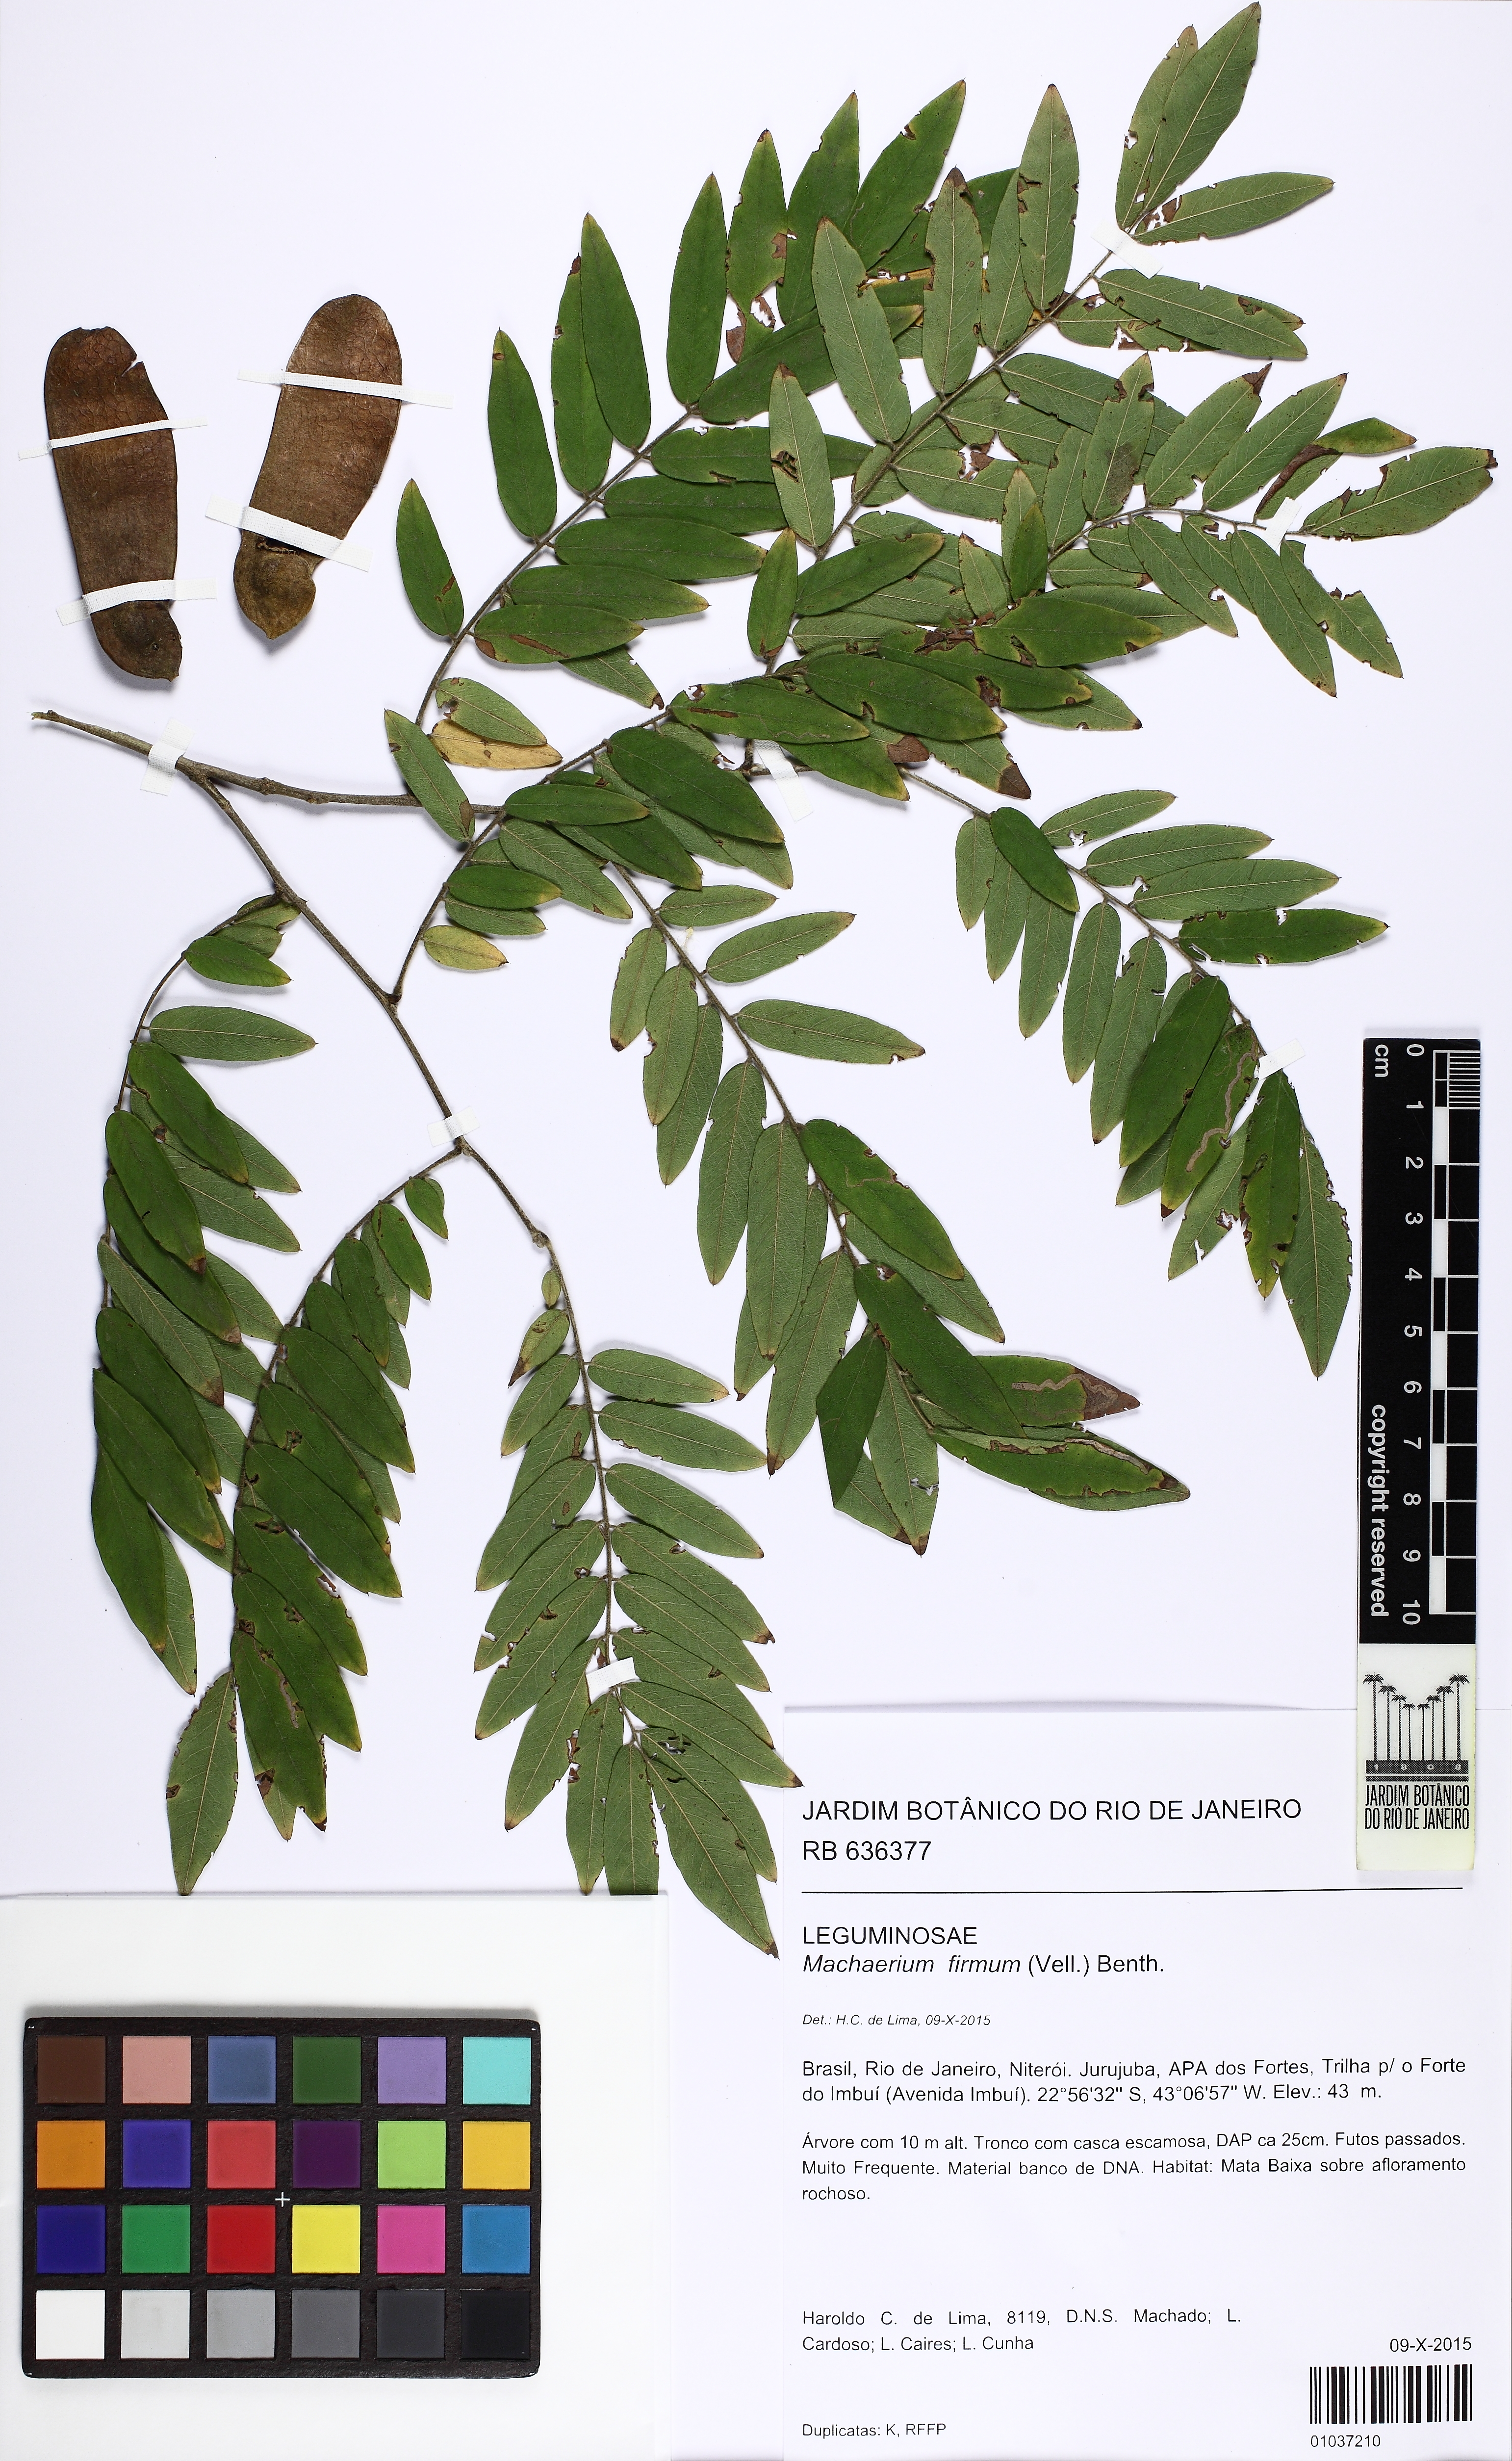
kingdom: Plantae
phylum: Tracheophyta
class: Magnoliopsida
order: Fabales
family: Fabaceae
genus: Machaerium
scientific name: Machaerium firmum
